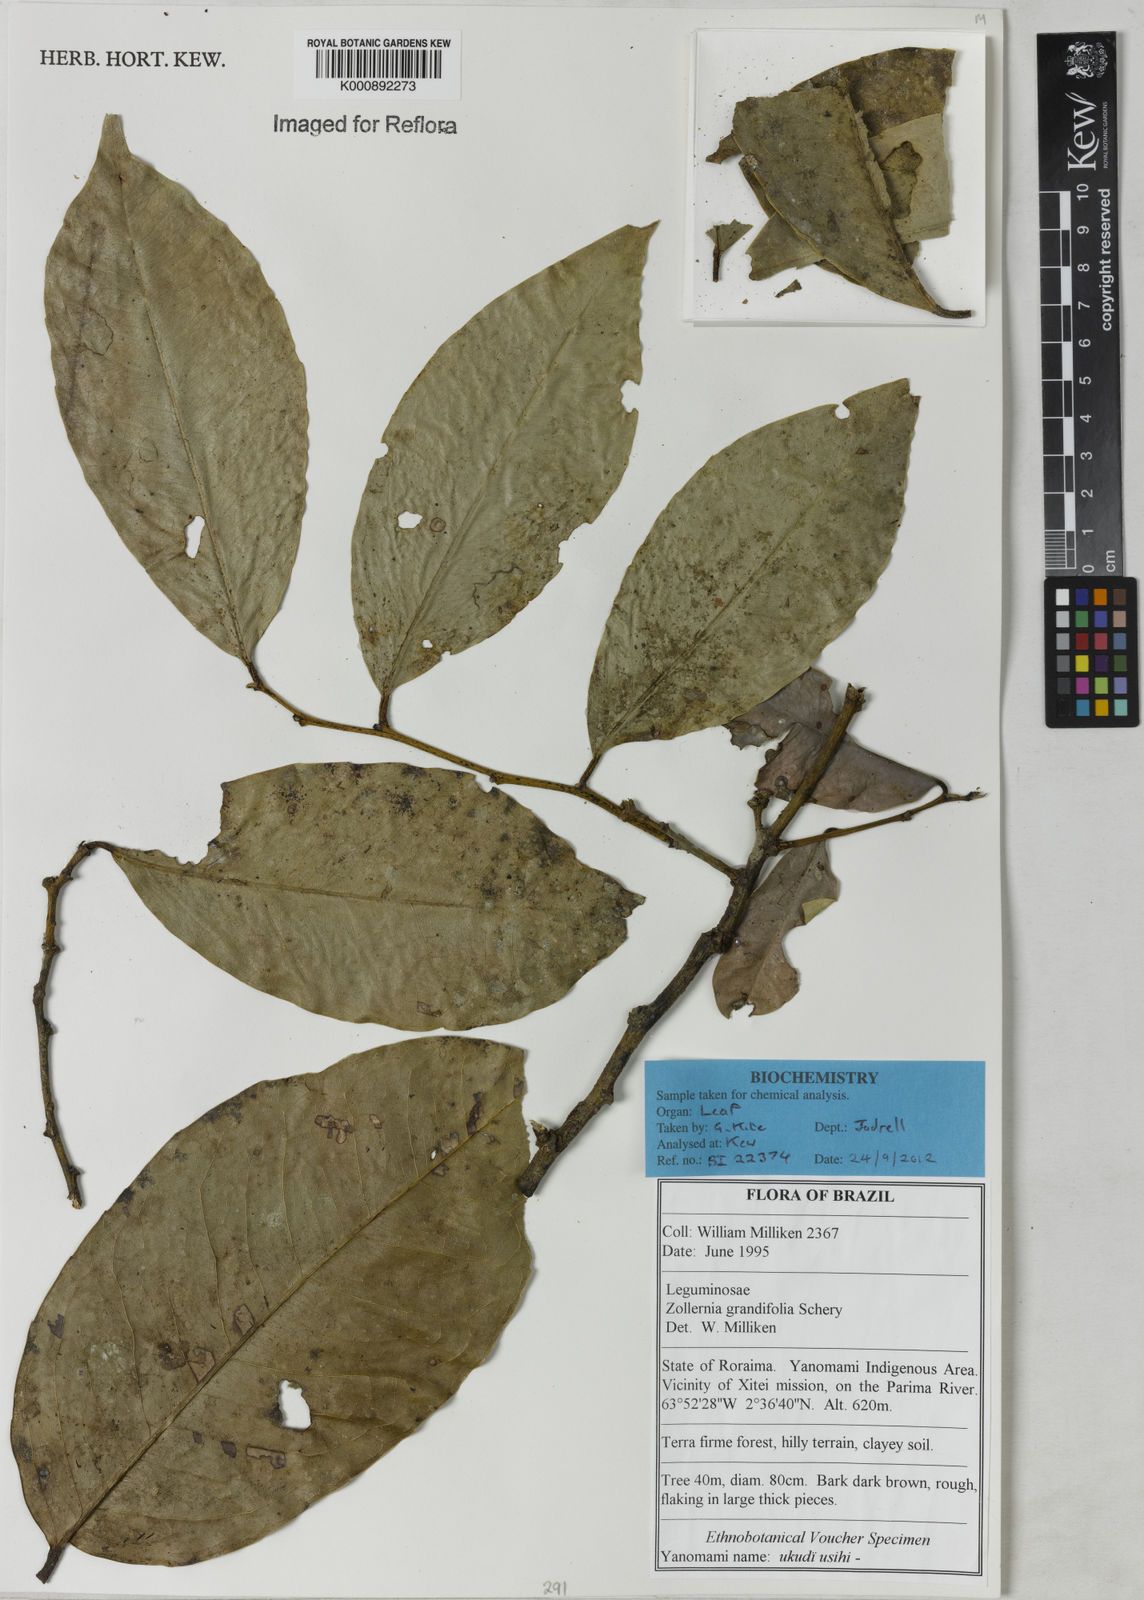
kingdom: Plantae
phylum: Tracheophyta
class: Magnoliopsida
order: Fabales
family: Fabaceae
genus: Zollernia
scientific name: Zollernia grandifolia
